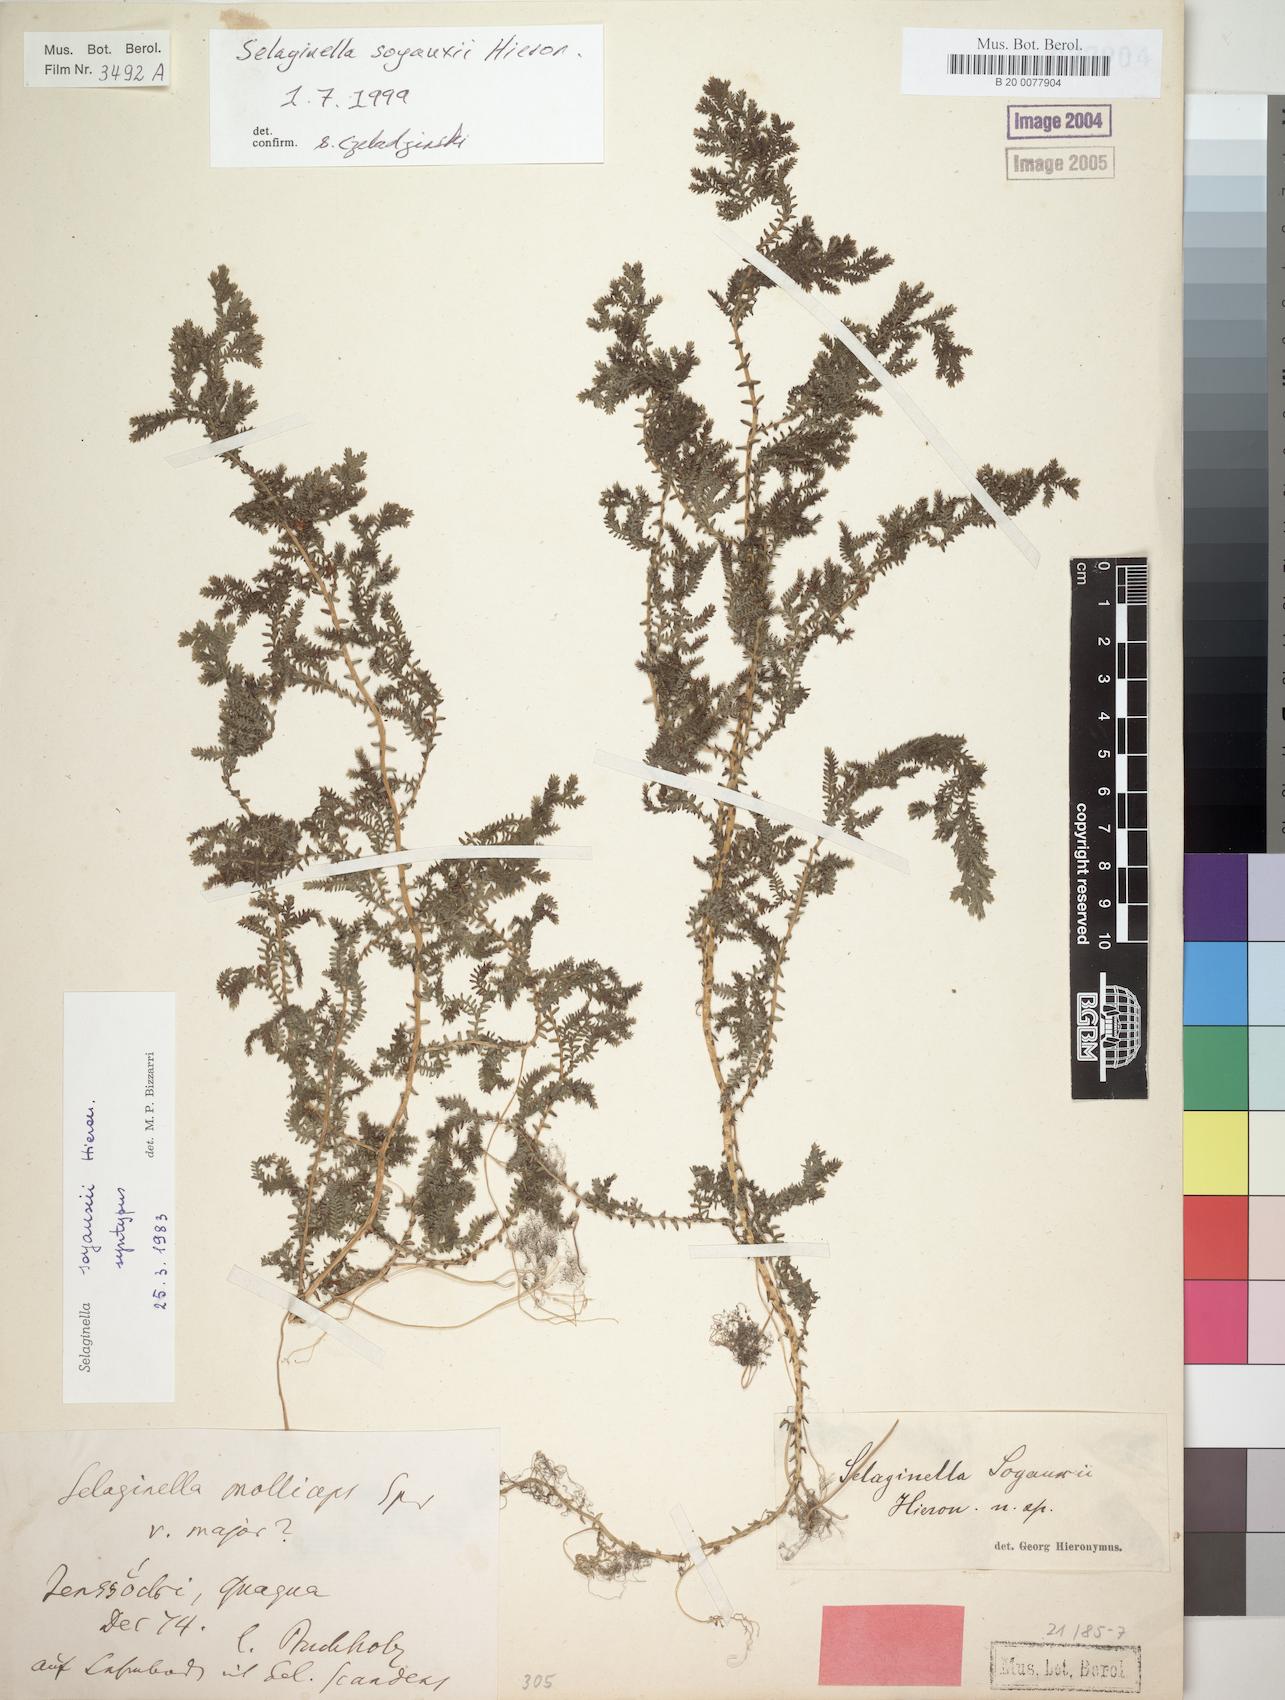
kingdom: Plantae
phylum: Tracheophyta
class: Lycopodiopsida
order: Selaginellales
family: Selaginellaceae
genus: Selaginella
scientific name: Selaginella
